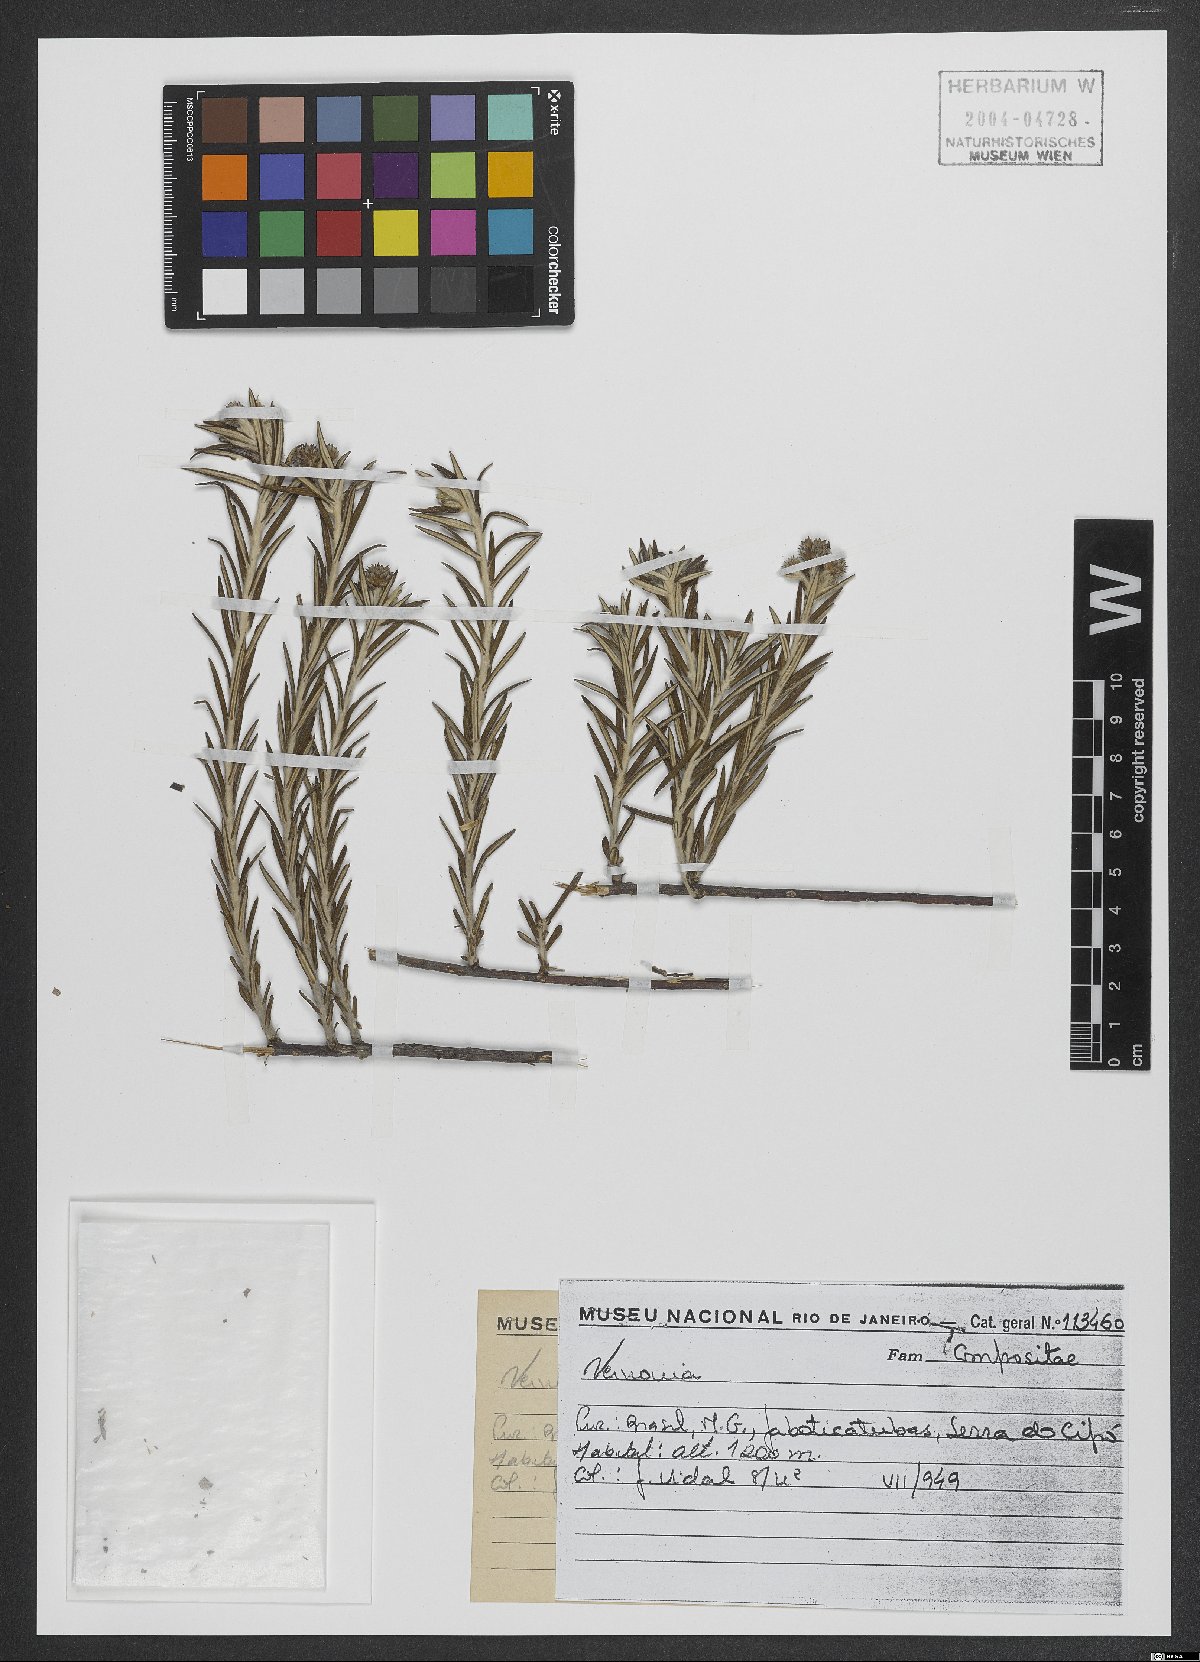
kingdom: Plantae
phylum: Tracheophyta
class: Magnoliopsida
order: Asterales
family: Asteraceae
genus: Vernonia
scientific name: Vernonia
